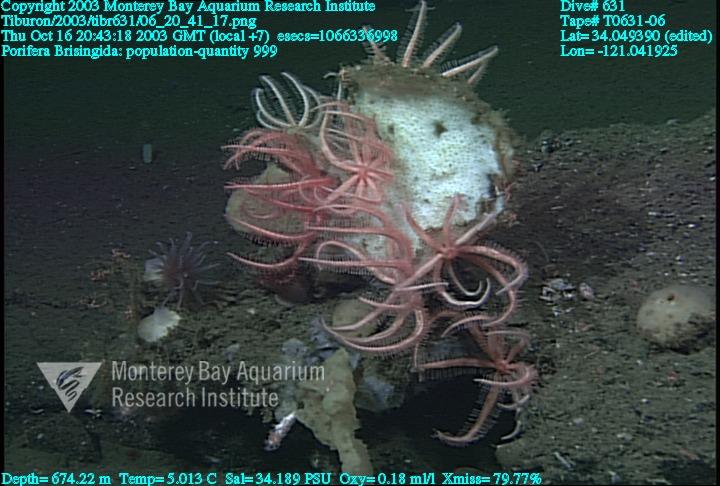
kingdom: Animalia
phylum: Porifera
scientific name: Porifera
